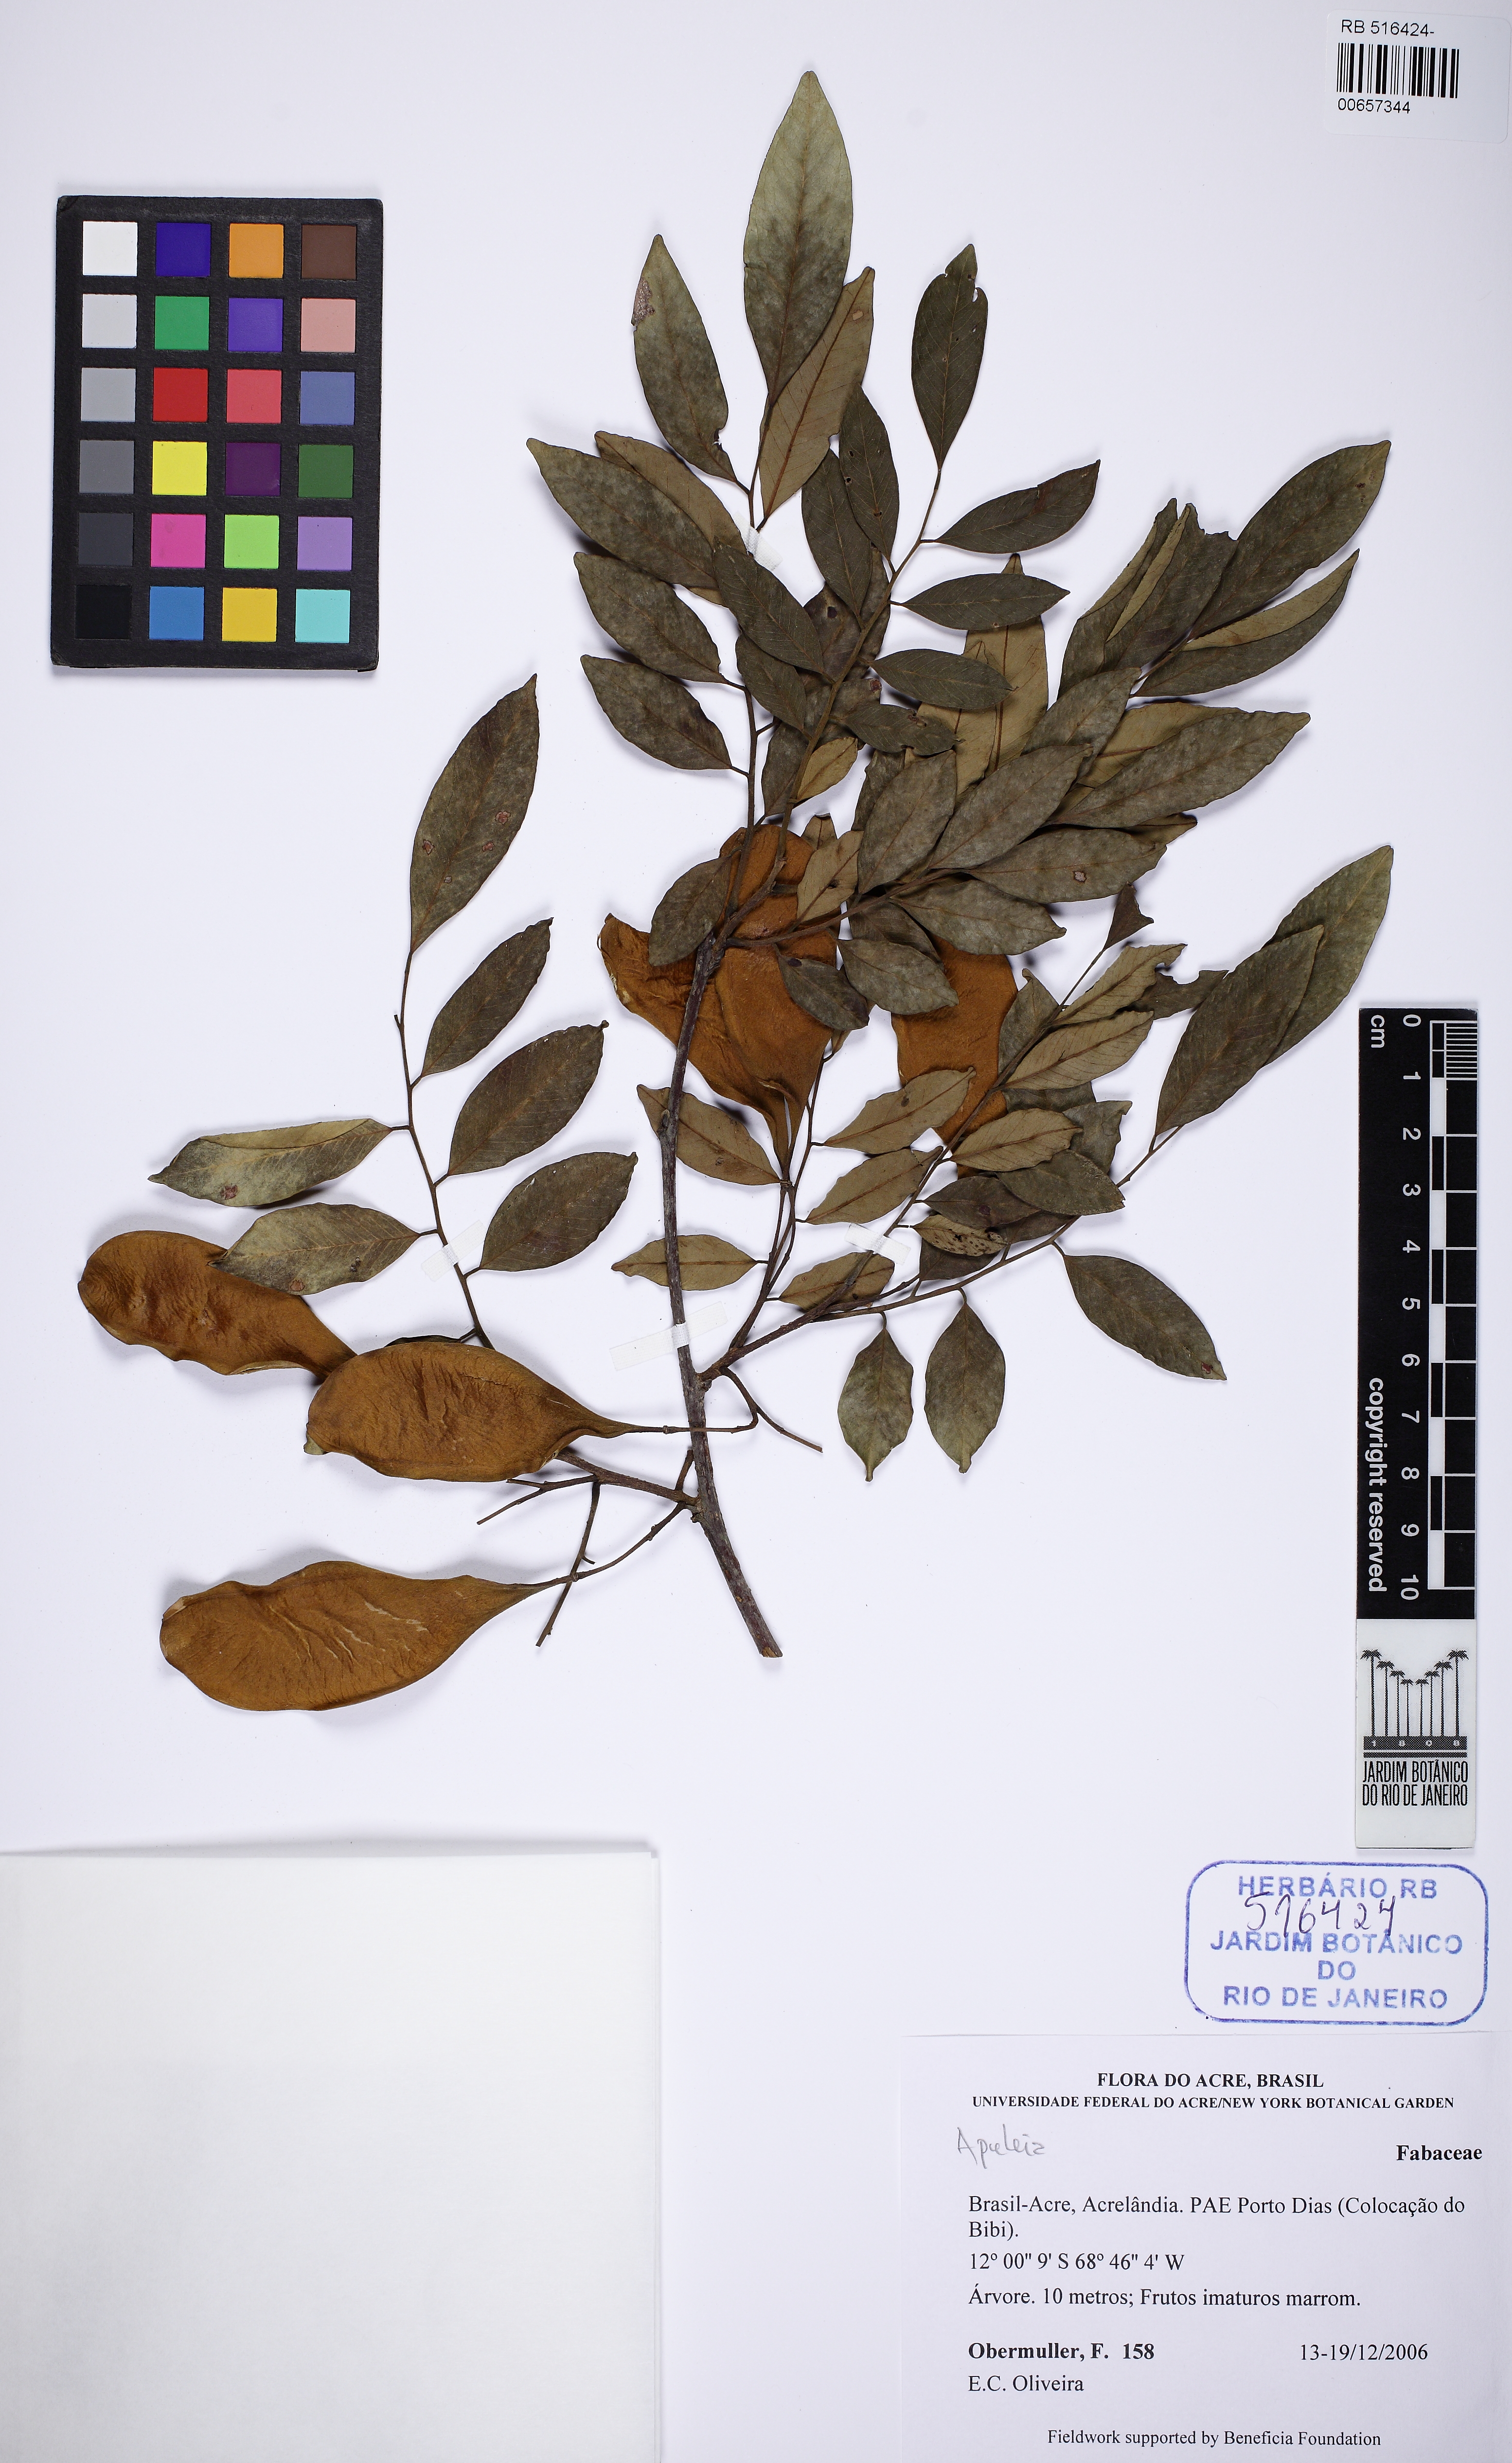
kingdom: Plantae
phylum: Tracheophyta
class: Magnoliopsida
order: Fabales
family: Fabaceae
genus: Apuleia
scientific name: Apuleia
